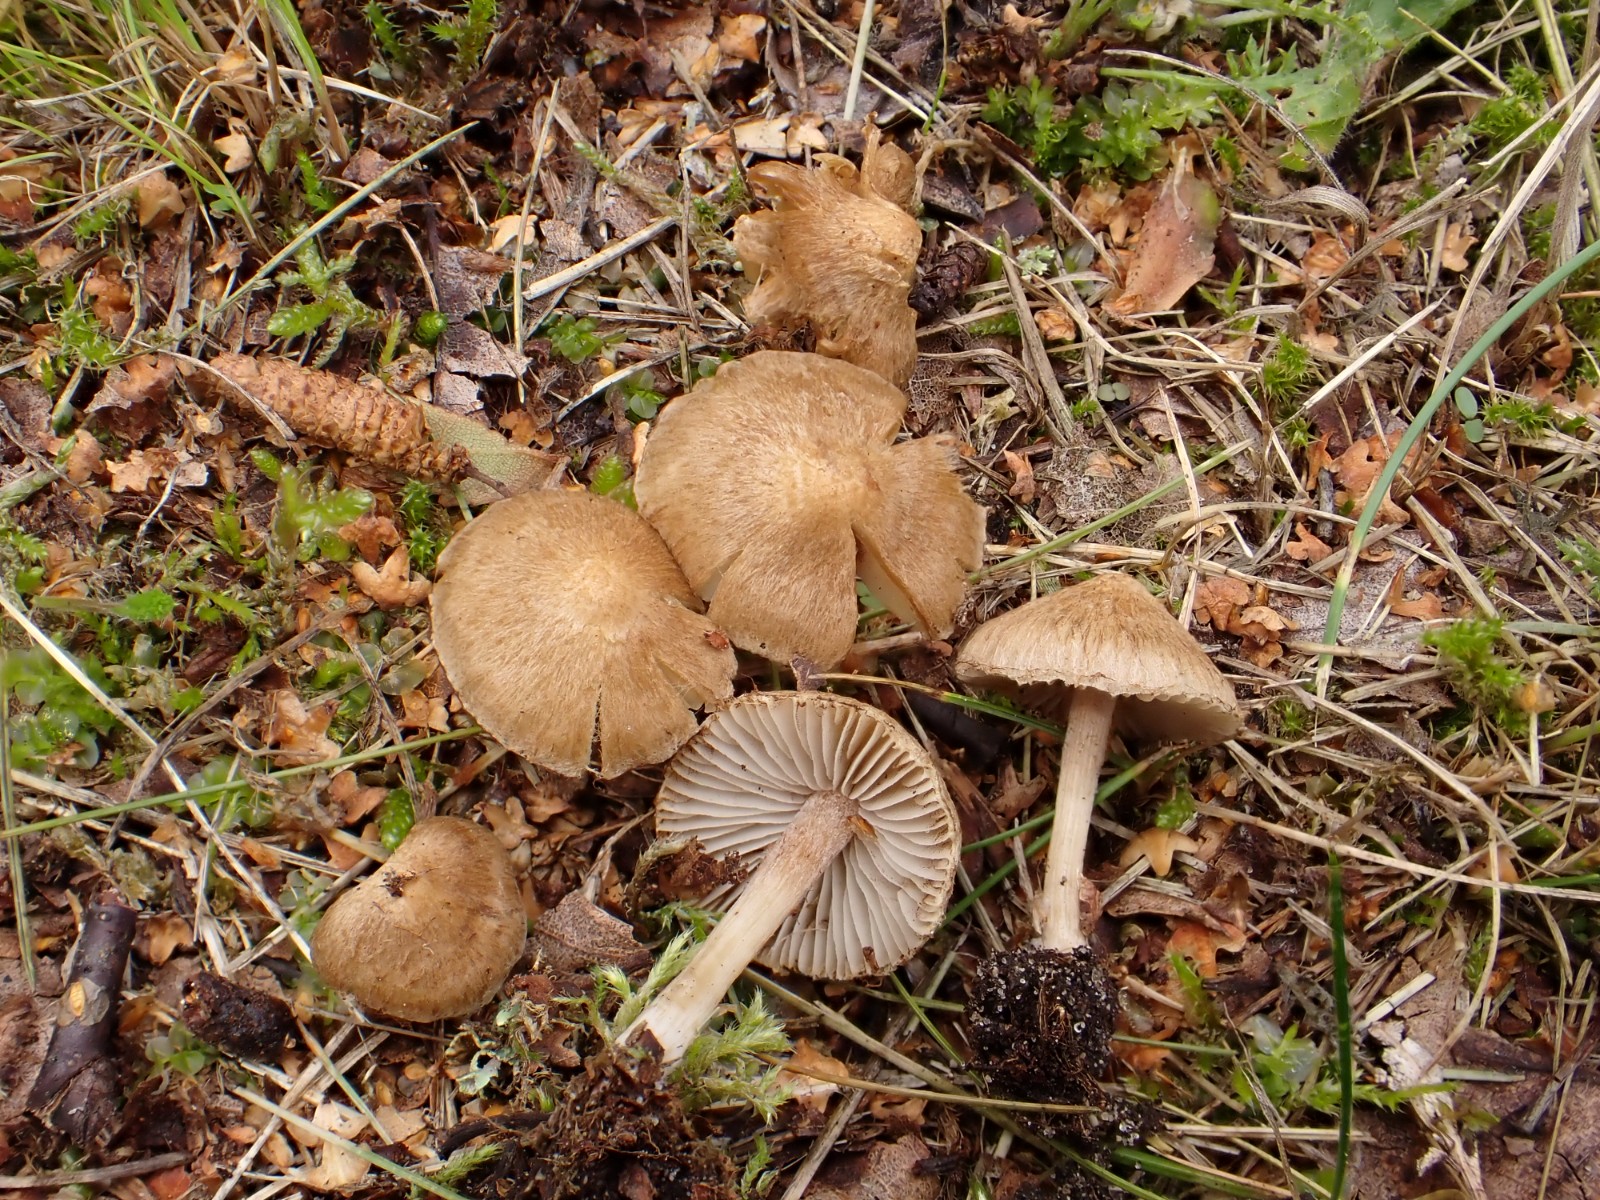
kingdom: Fungi
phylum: Basidiomycota
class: Agaricomycetes
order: Agaricales
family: Inocybaceae
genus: Inocybe
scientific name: Inocybe
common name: trævlhat
